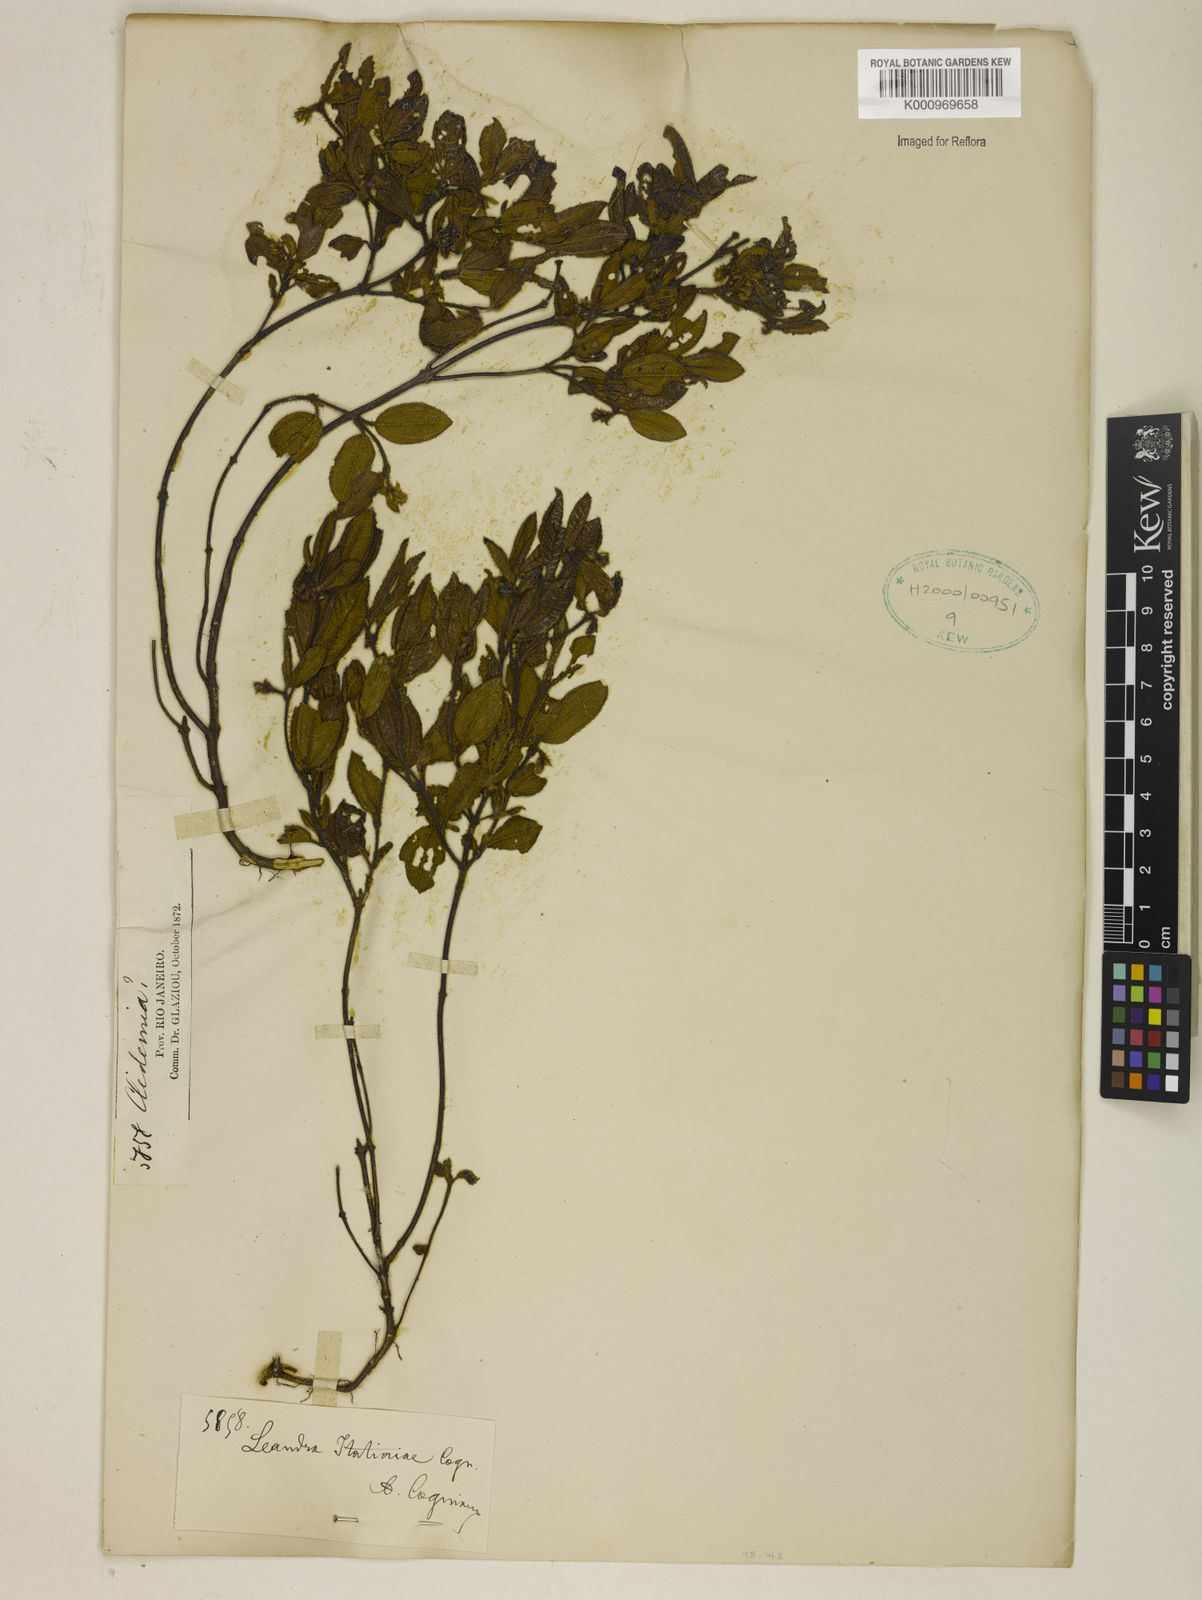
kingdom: Plantae
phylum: Tracheophyta
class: Magnoliopsida
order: Myrtales
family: Melastomataceae
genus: Miconia
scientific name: Miconia itatiaiae
